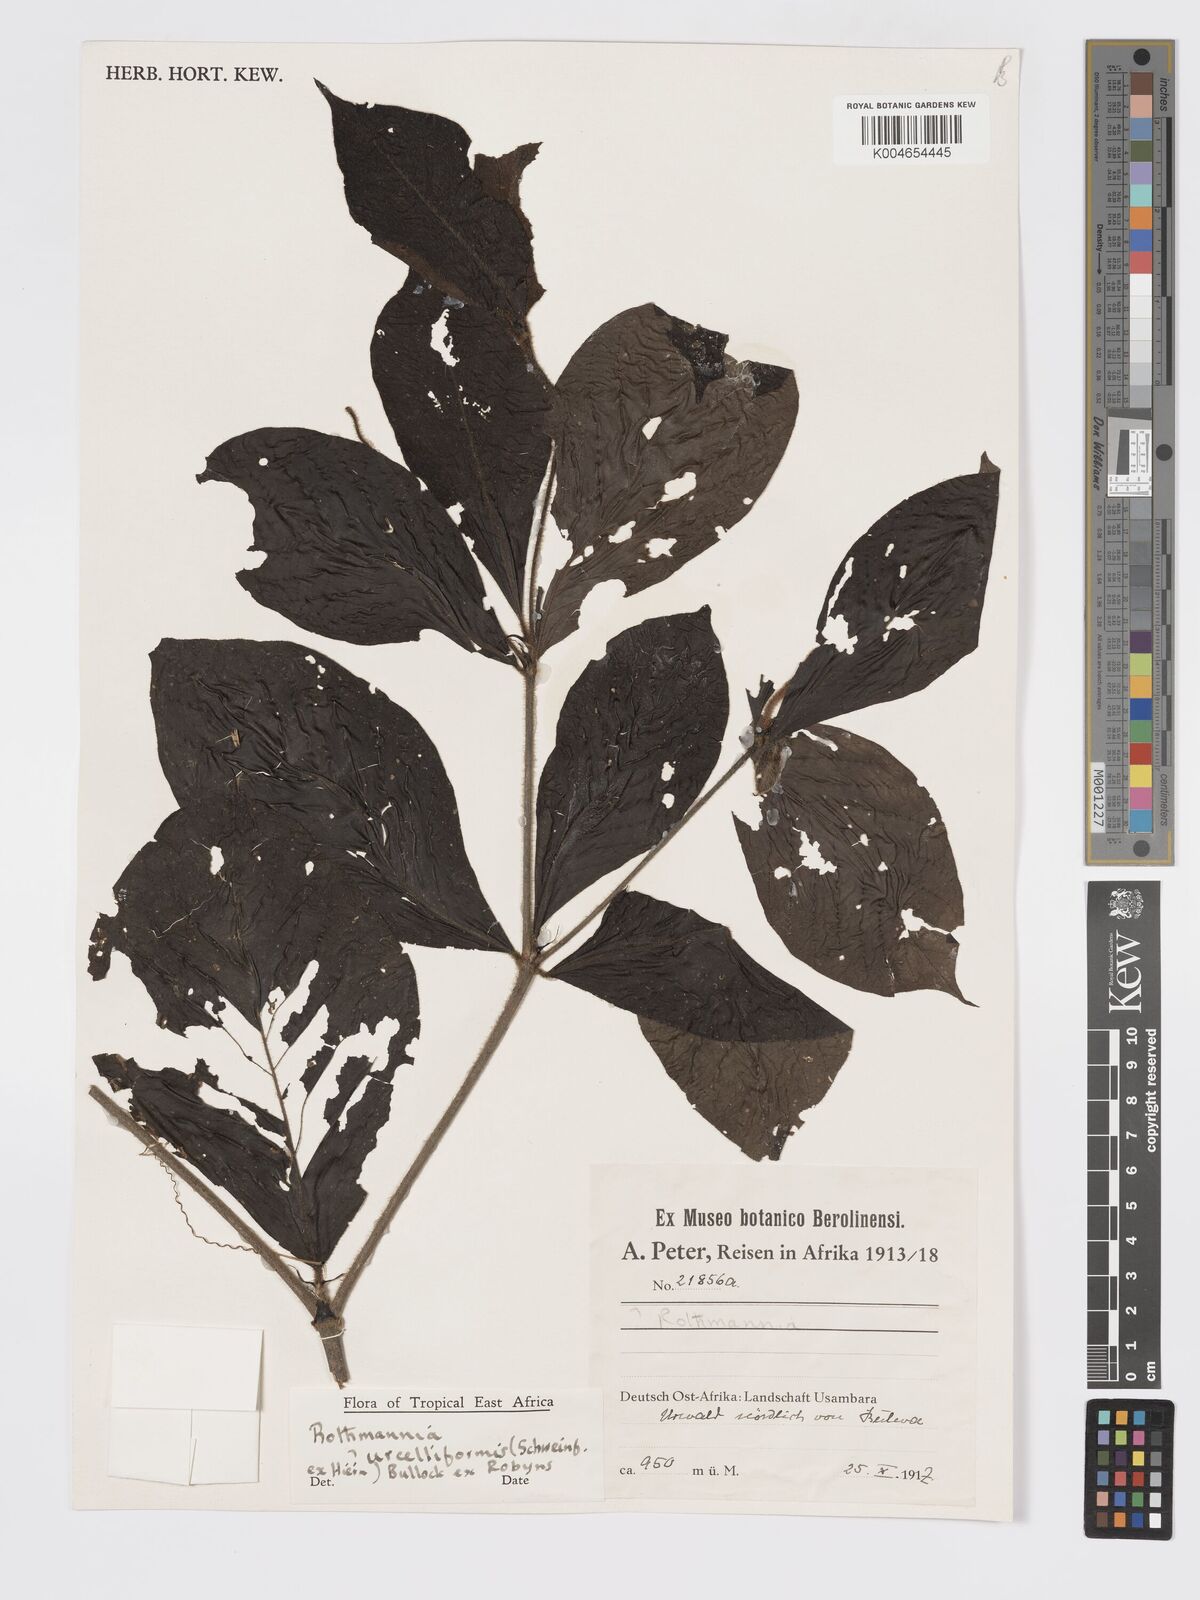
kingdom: Plantae
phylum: Tracheophyta
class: Magnoliopsida
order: Gentianales
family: Rubiaceae
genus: Rothmannia
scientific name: Rothmannia urcelliformis
